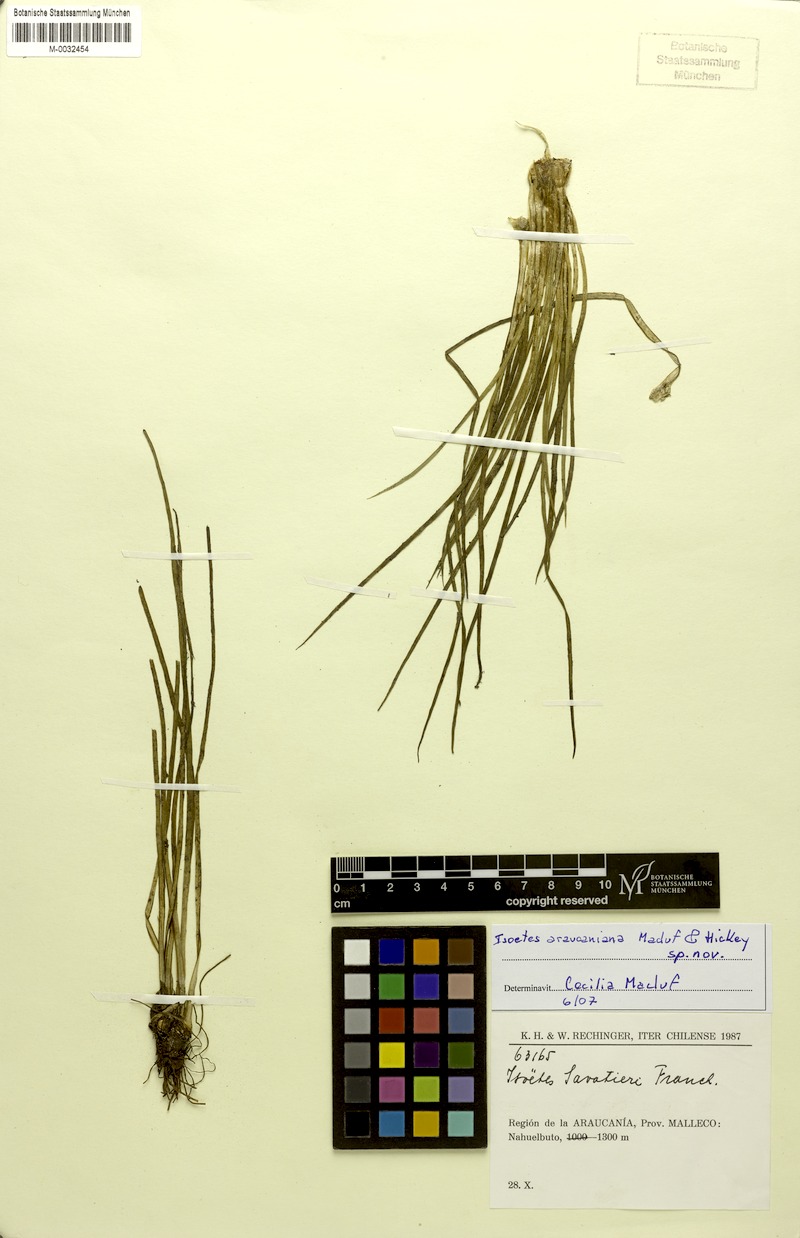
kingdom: Plantae
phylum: Tracheophyta
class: Lycopodiopsida
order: Isoetales
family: Isoetaceae
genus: Isoetes
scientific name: Isoetes araucaniana
